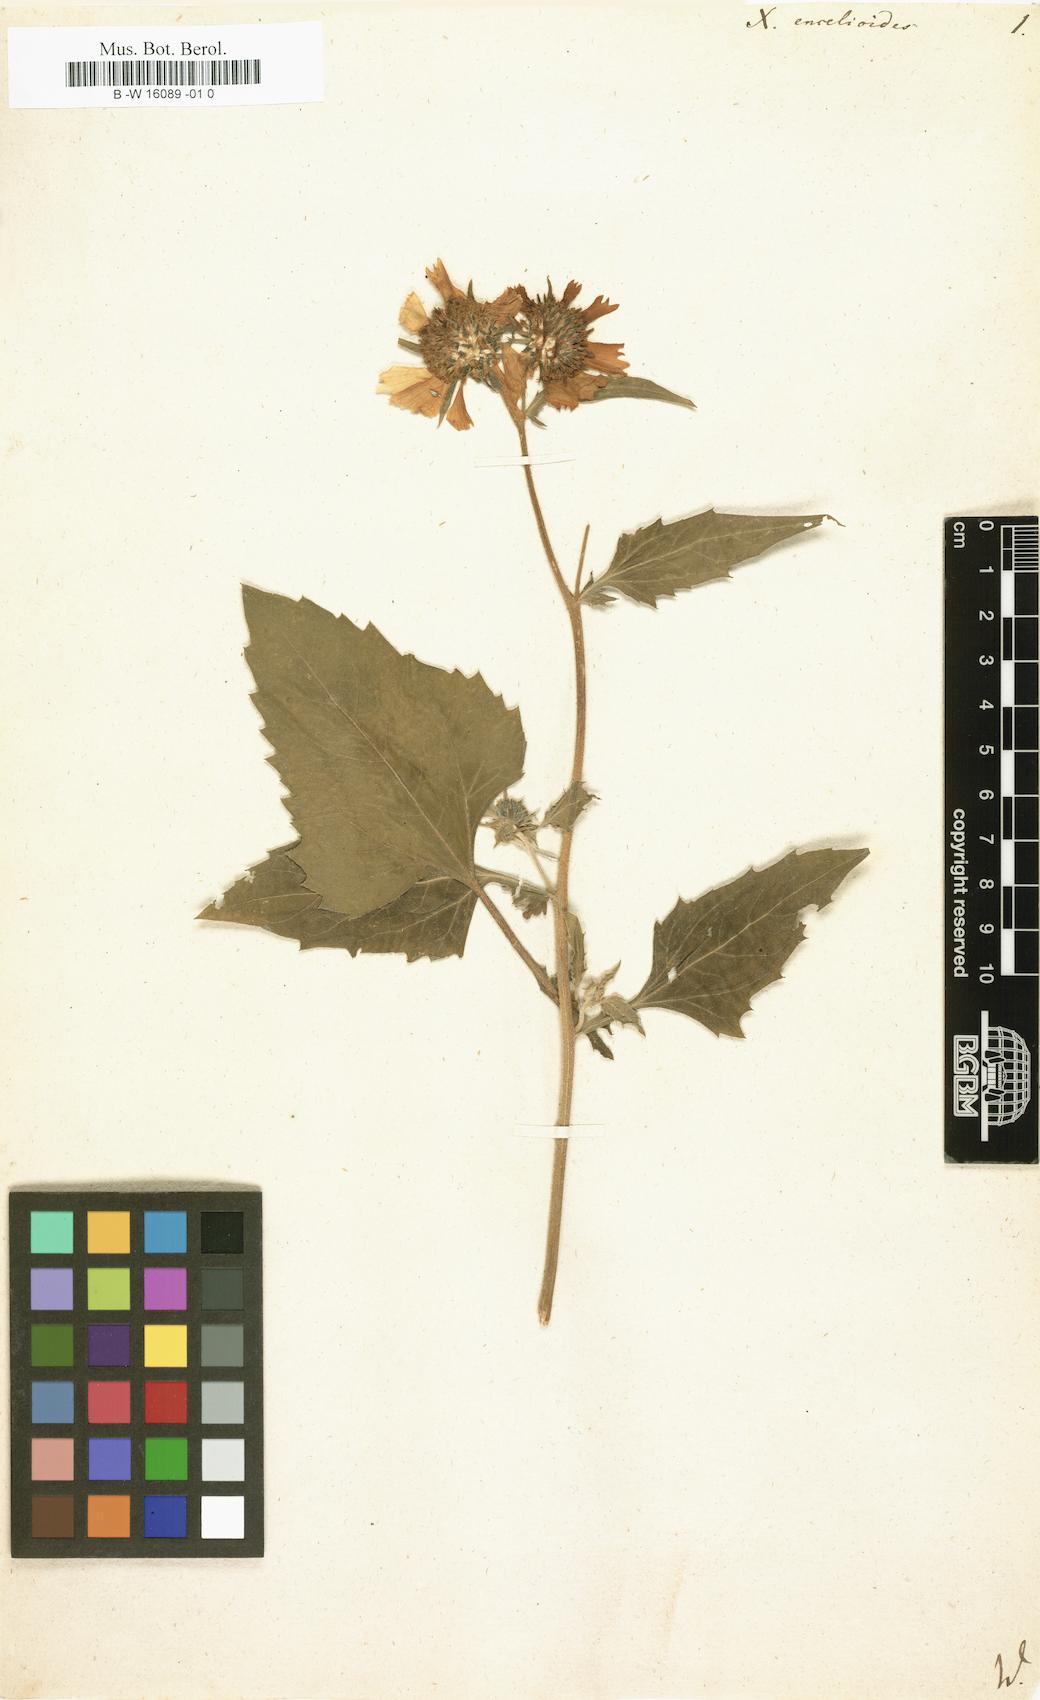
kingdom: Plantae
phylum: Tracheophyta
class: Magnoliopsida
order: Asterales
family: Asteraceae
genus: Verbesina
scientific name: Verbesina encelioides
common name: Golden crownbeard
